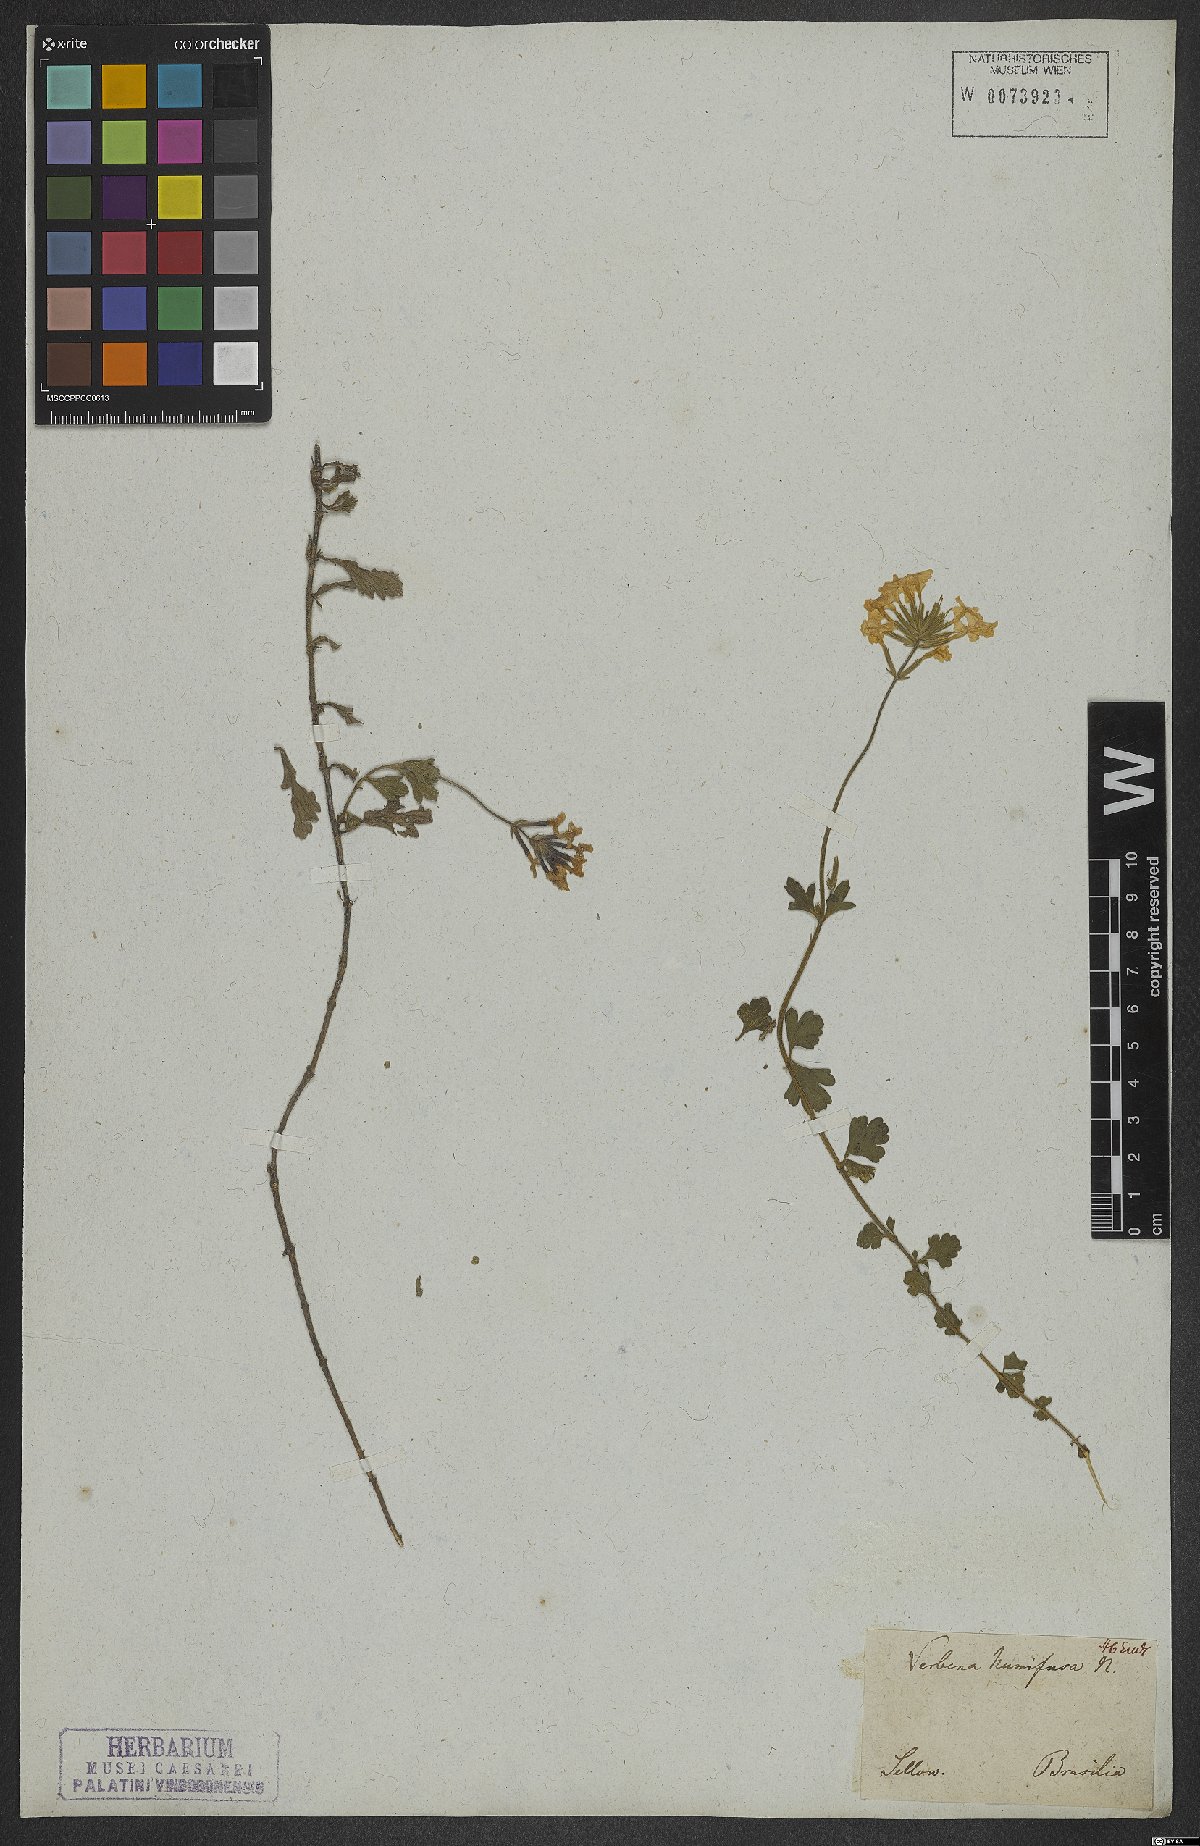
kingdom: Plantae
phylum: Tracheophyta
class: Magnoliopsida
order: Lamiales
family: Verbenaceae
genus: Verbena
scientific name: Verbena humifusa
